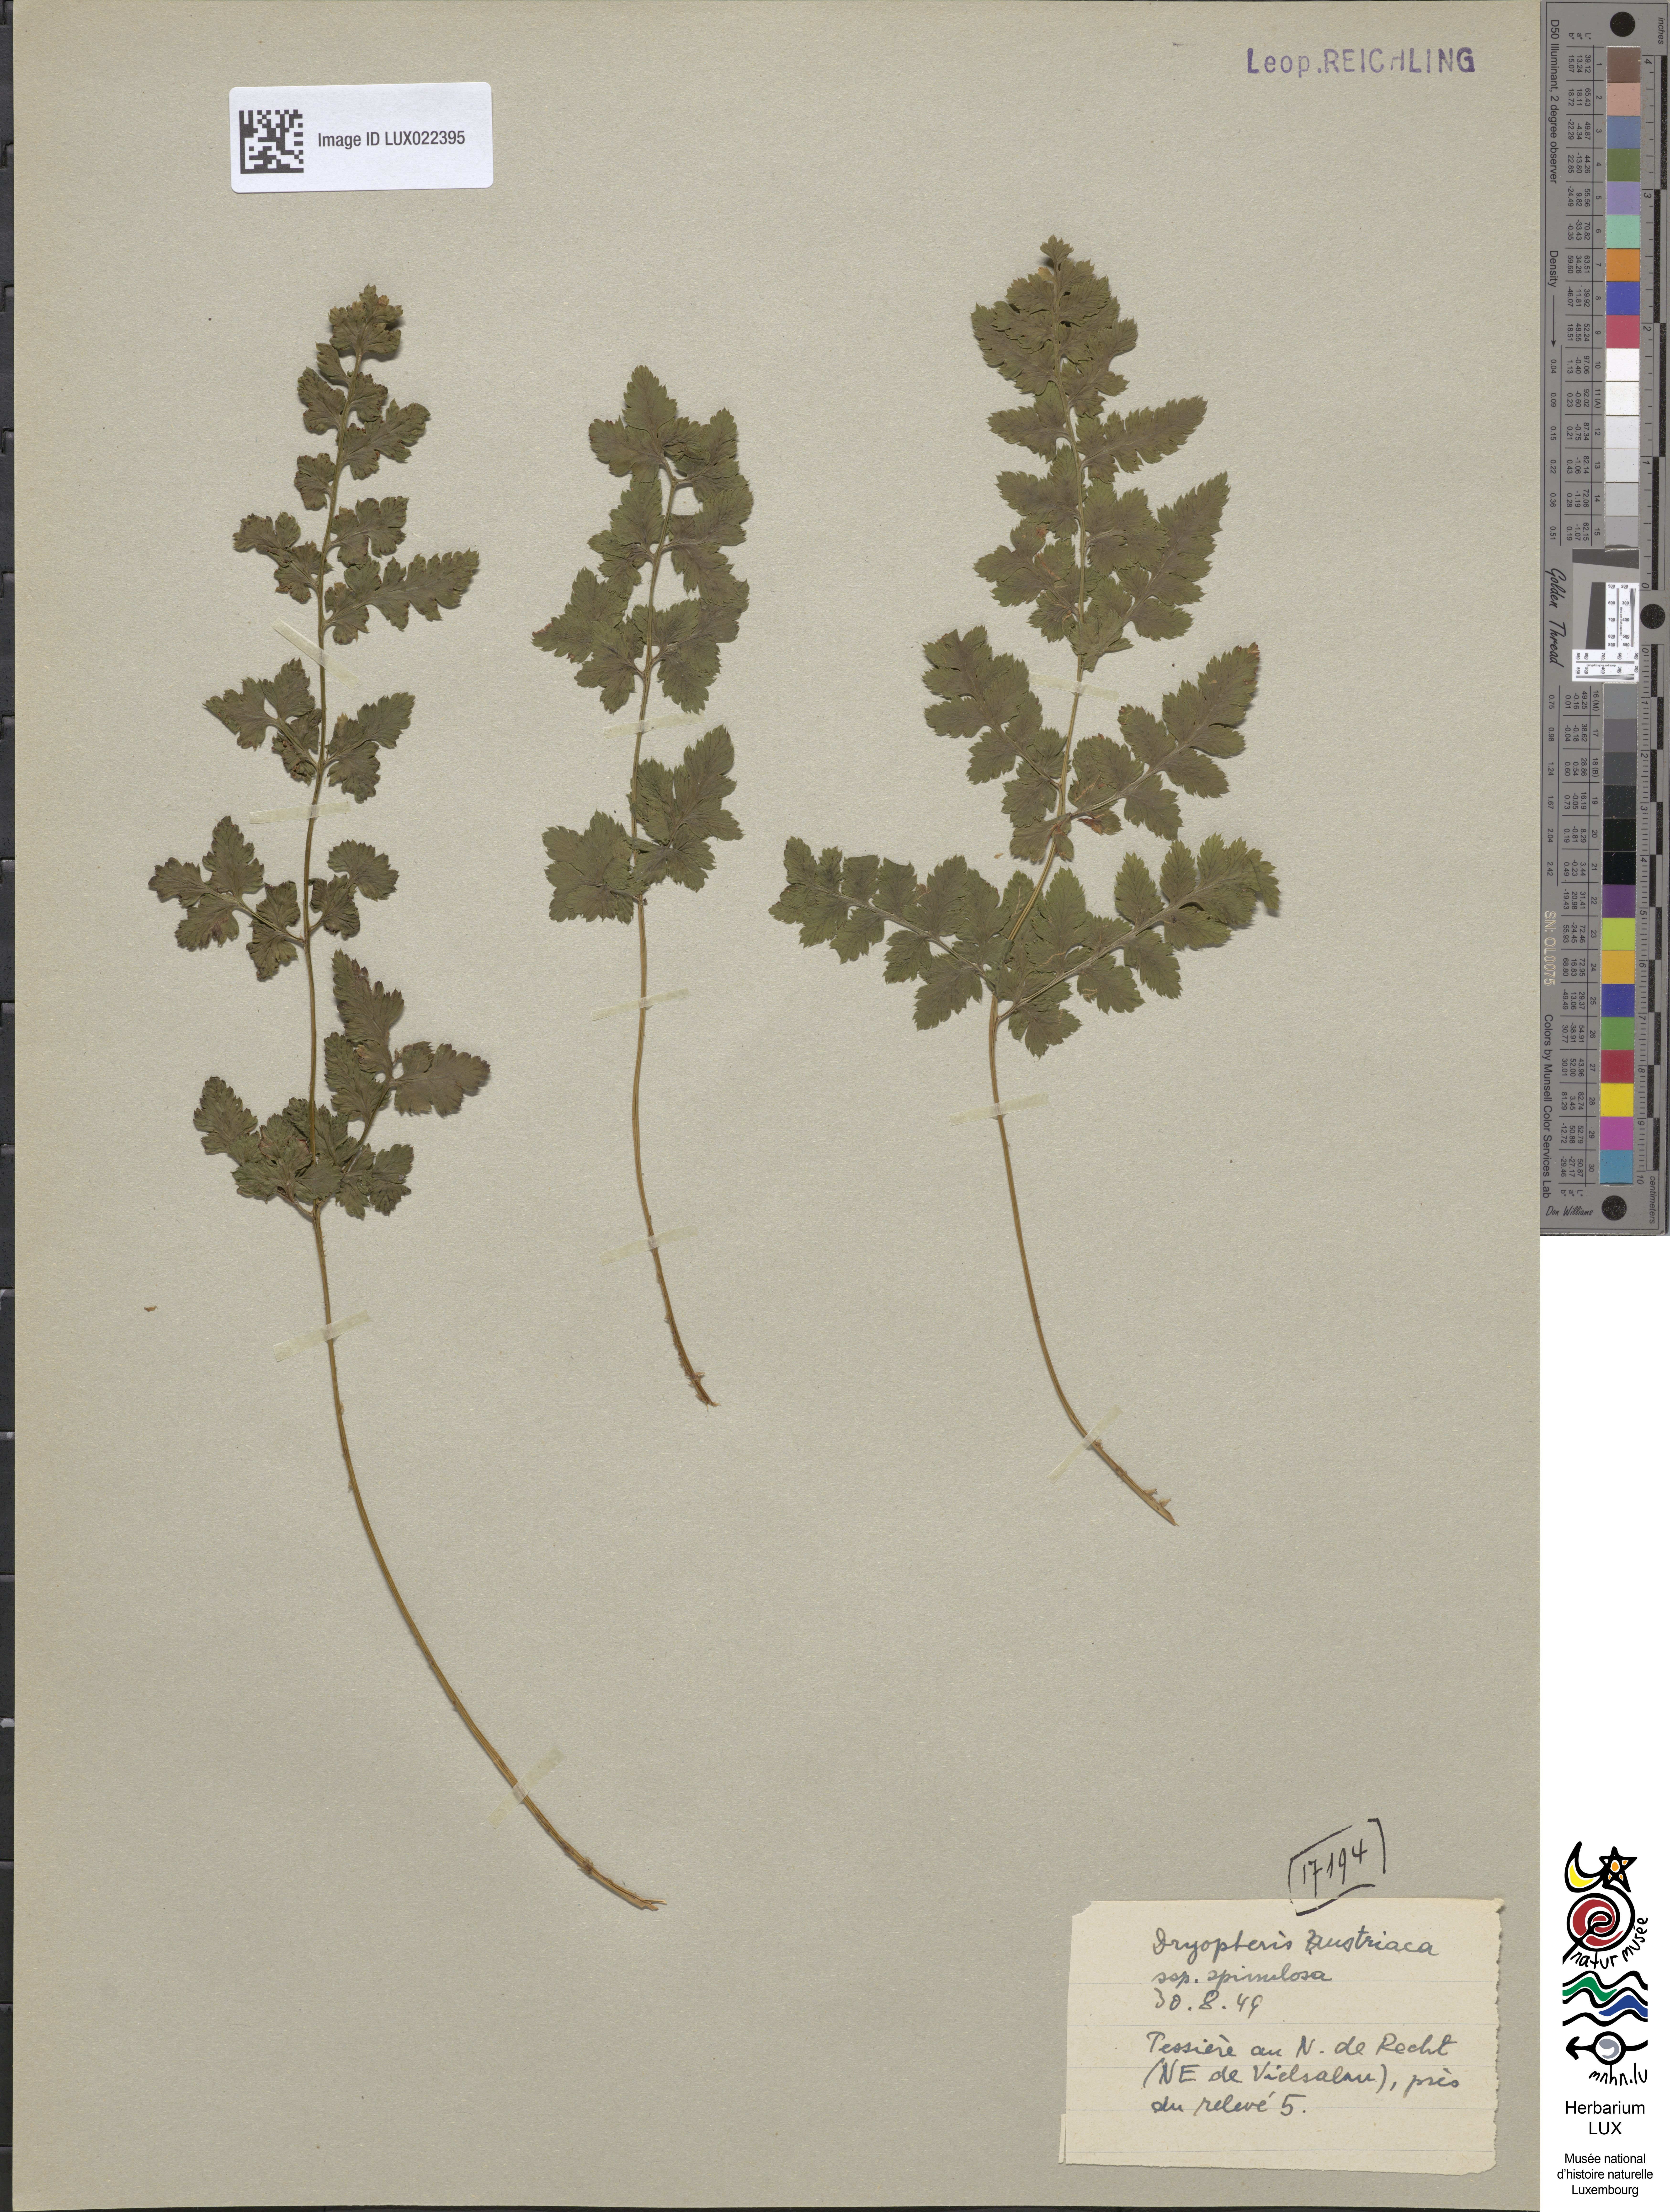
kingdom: Plantae
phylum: Tracheophyta
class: Polypodiopsida
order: Polypodiales
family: Dryopteridaceae
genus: Dryopteris
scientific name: Dryopteris carthusiana
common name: Narrow buckler-fern
